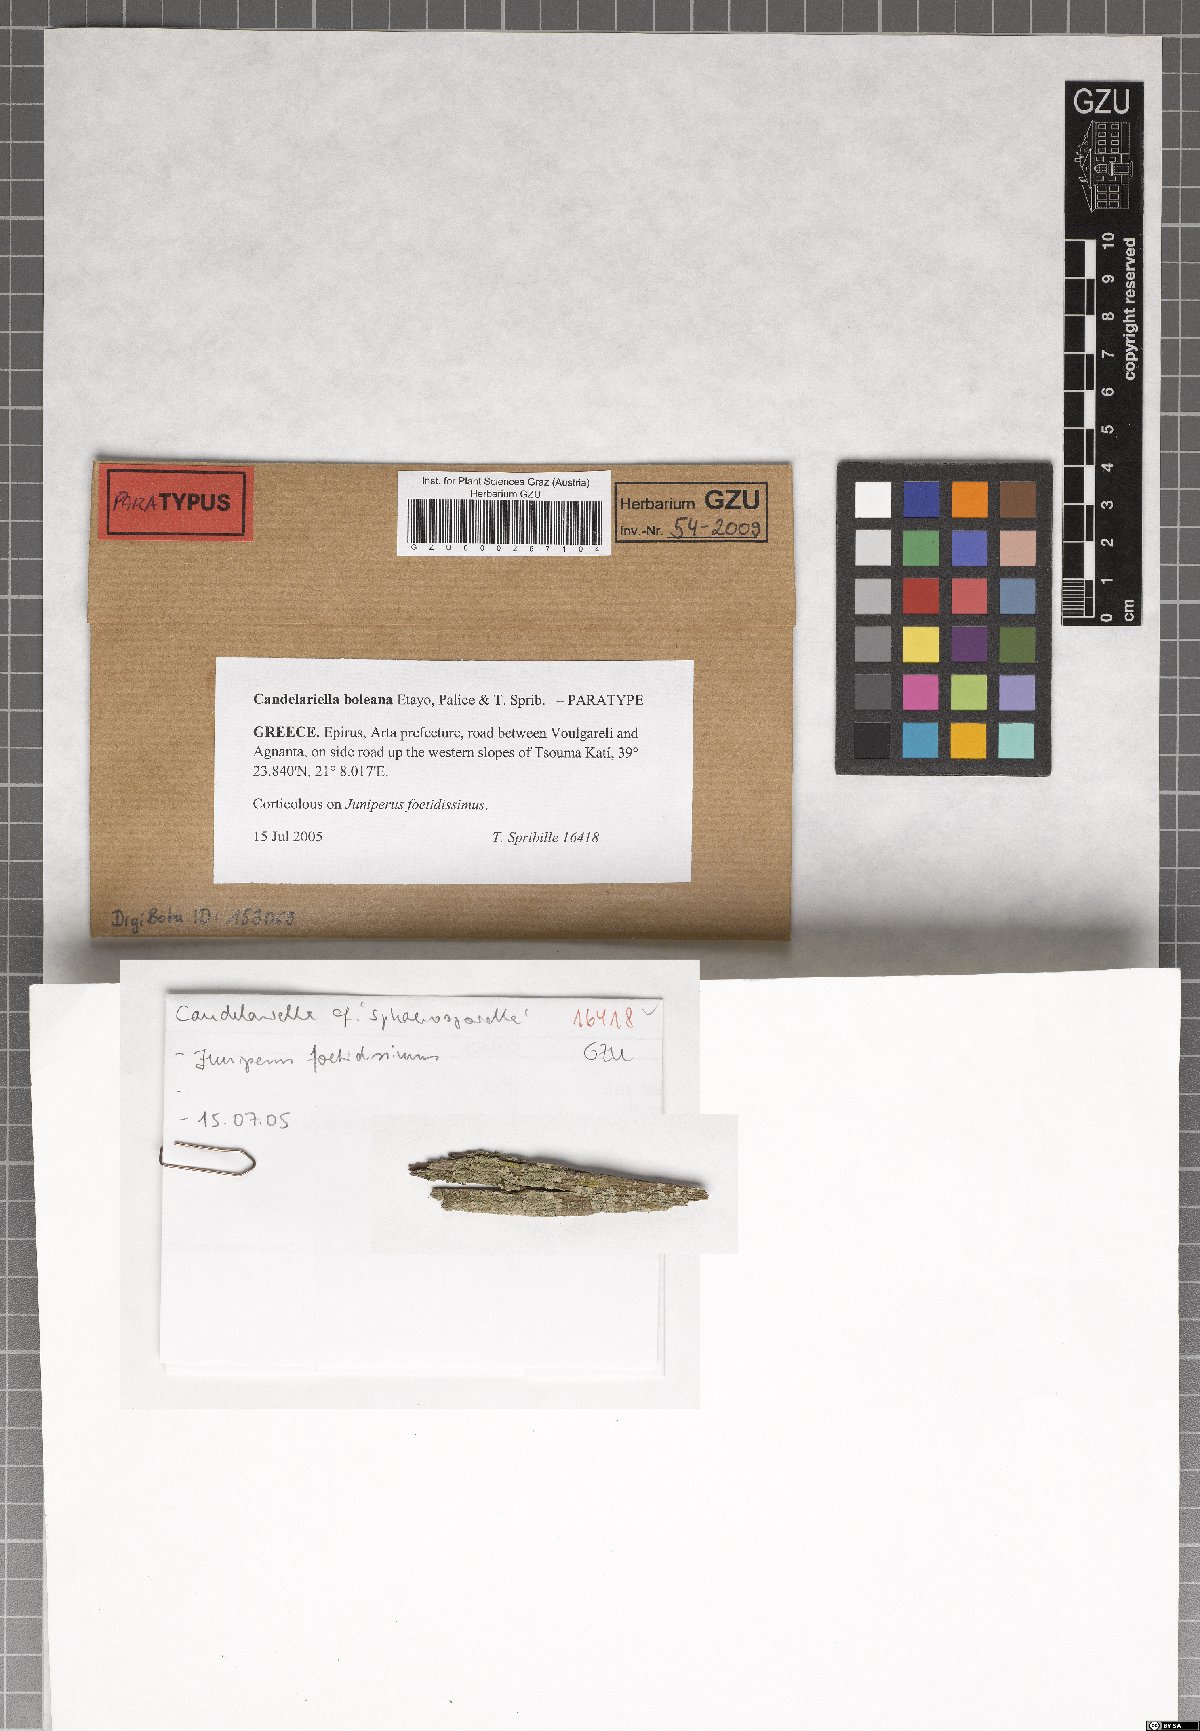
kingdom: Fungi
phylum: Ascomycota
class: Candelariomycetes
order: Candelariales
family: Candelariaceae
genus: Candelariella
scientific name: Candelariella boleana
